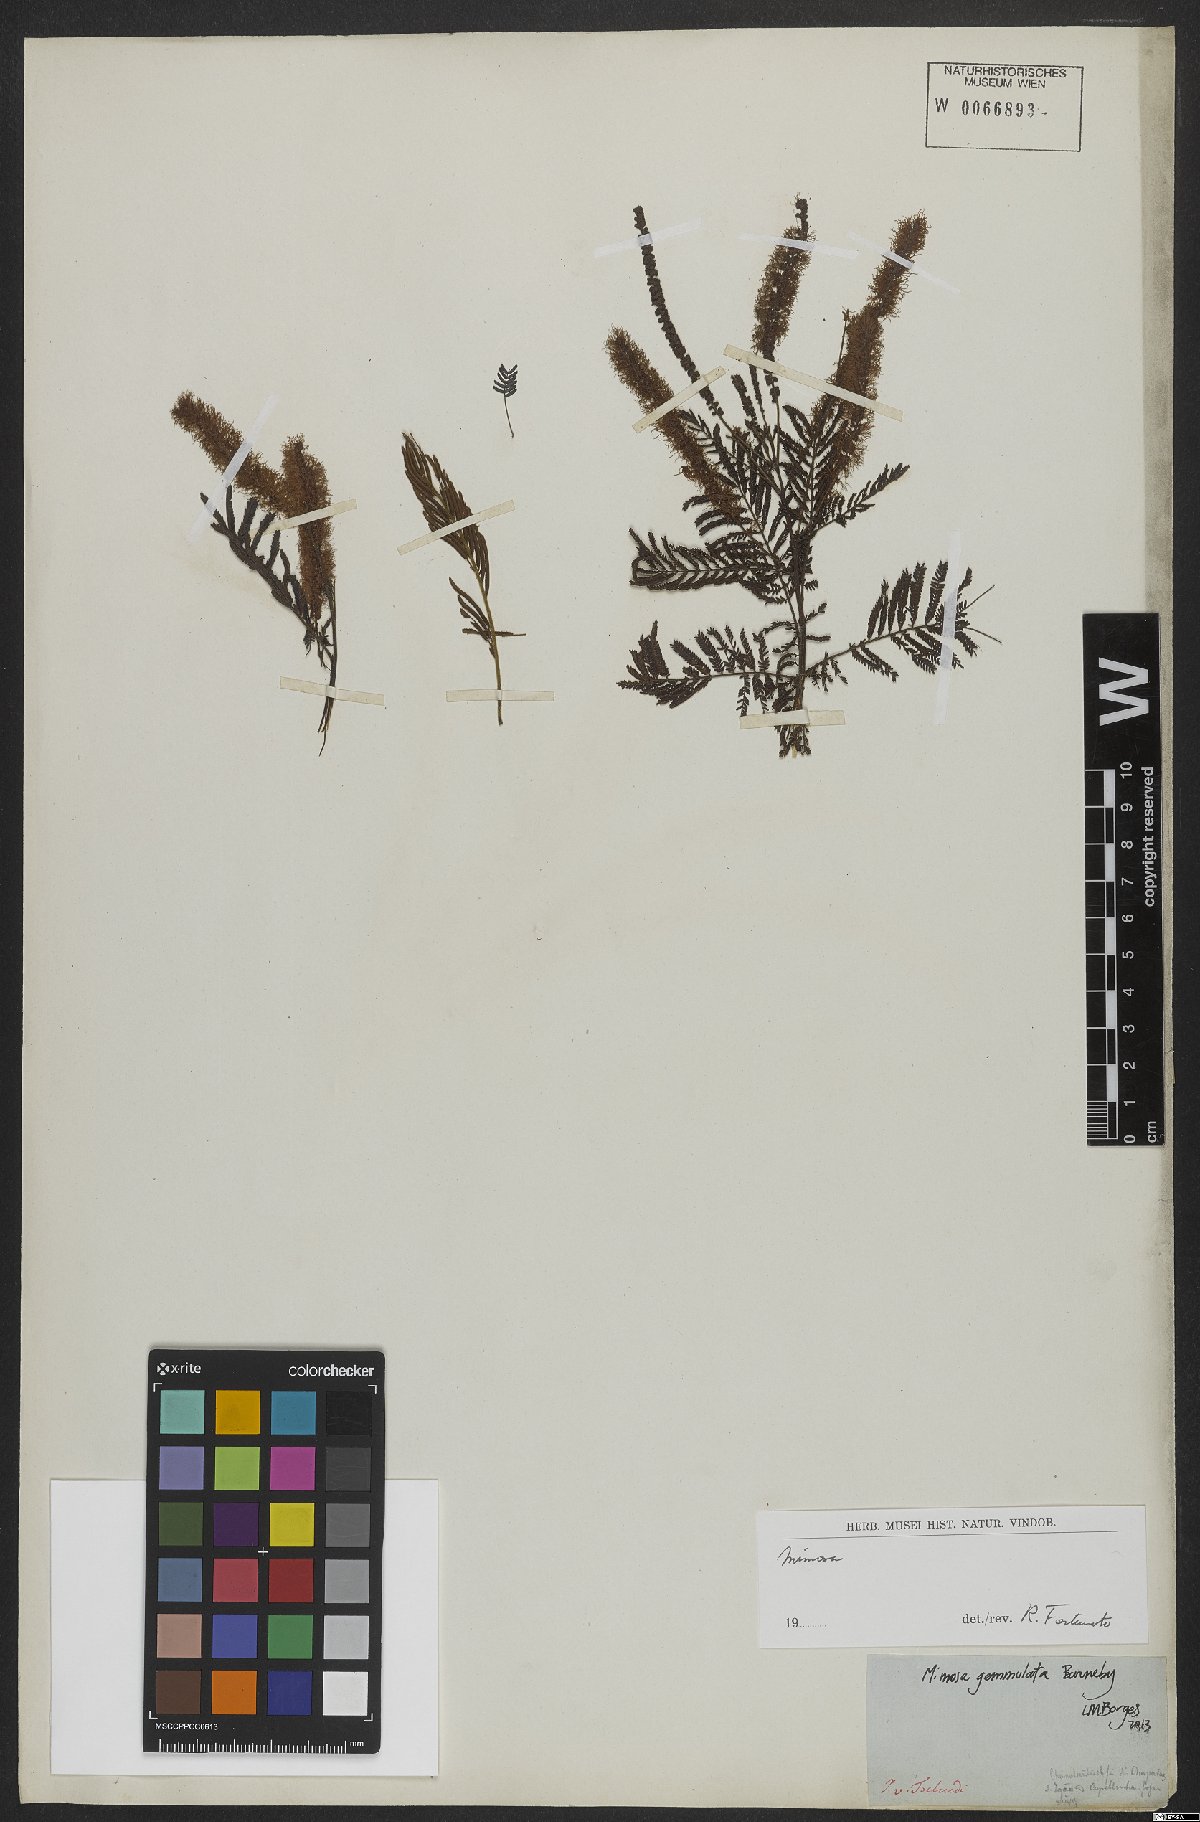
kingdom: Plantae
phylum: Tracheophyta
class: Magnoliopsida
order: Fabales
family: Fabaceae
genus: Mimosa
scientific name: Mimosa gemmulata
